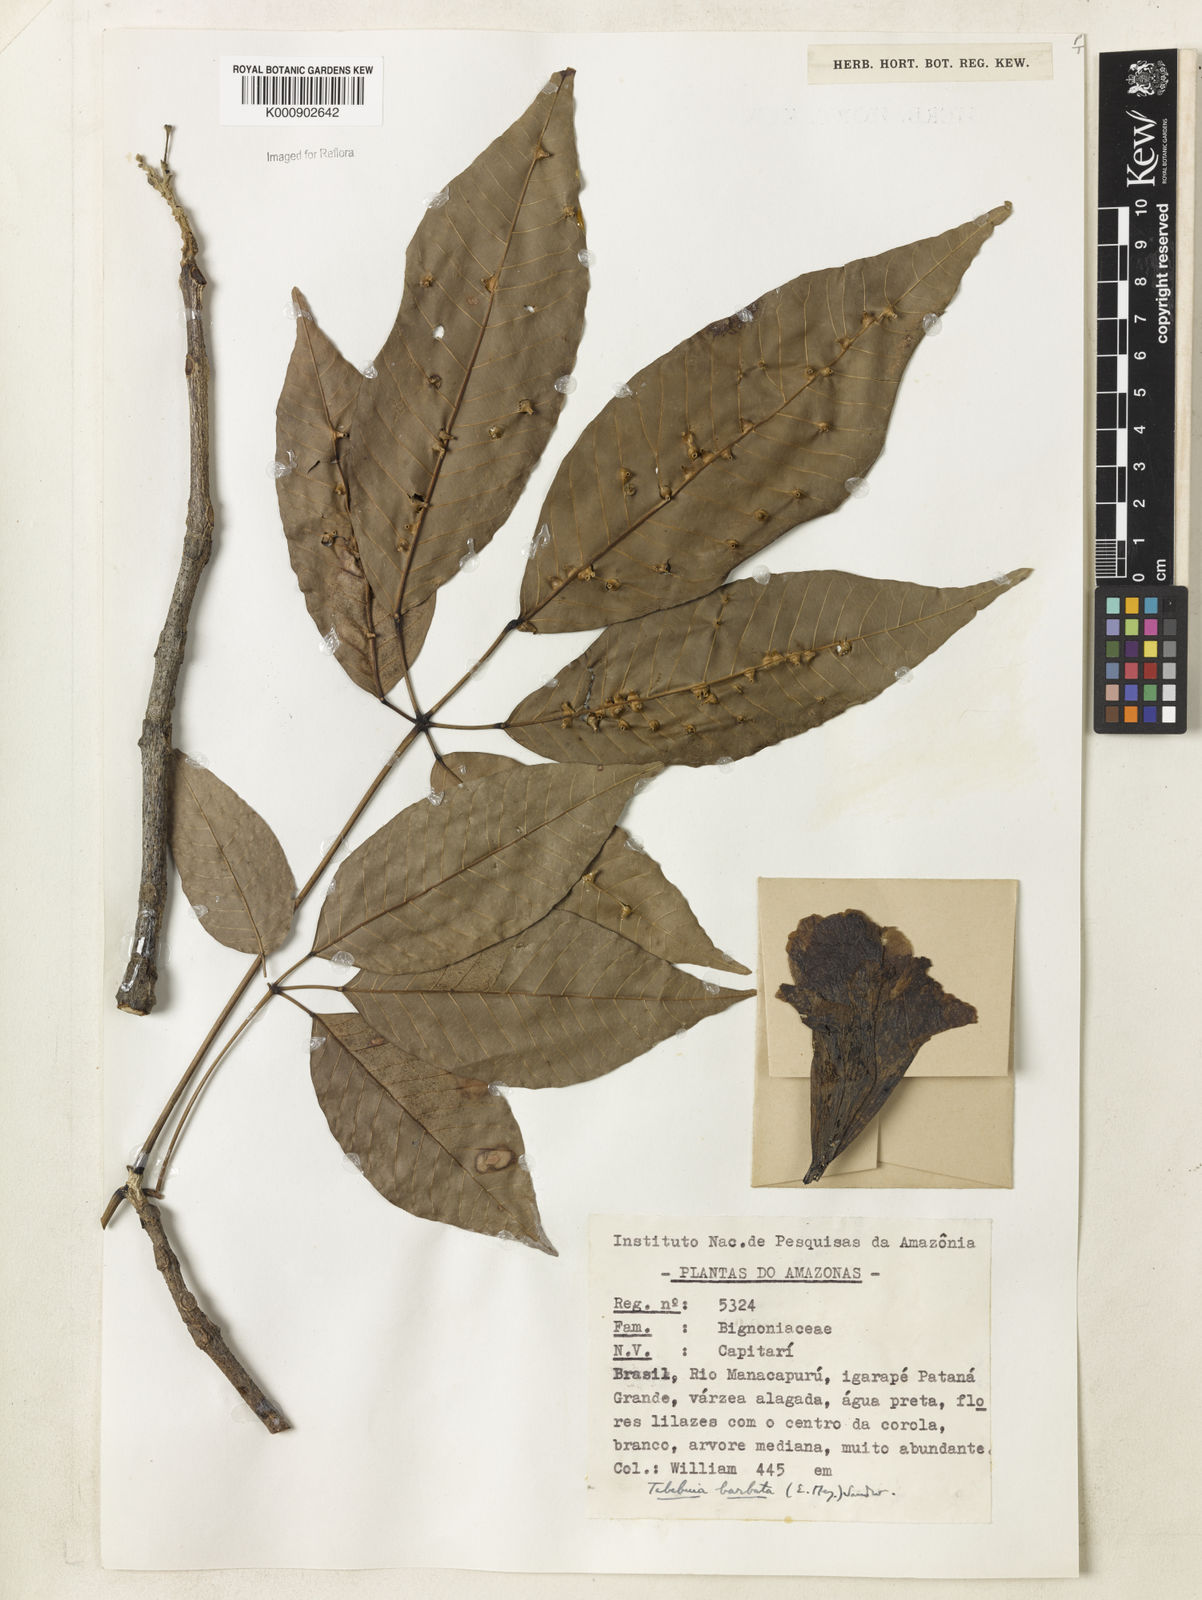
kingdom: Plantae
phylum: Tracheophyta
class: Magnoliopsida
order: Lamiales
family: Bignoniaceae
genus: Handroanthus
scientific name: Handroanthus barbatus
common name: Trumpet trees
